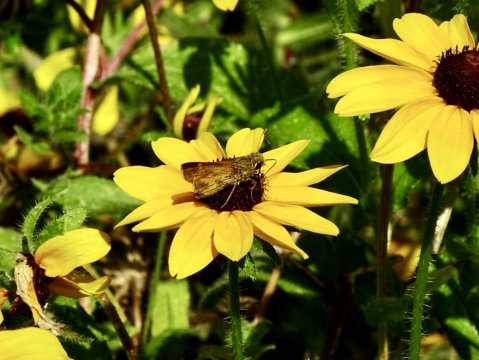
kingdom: Animalia
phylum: Arthropoda
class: Insecta
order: Lepidoptera
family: Hesperiidae
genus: Atalopedes
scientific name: Atalopedes campestris
